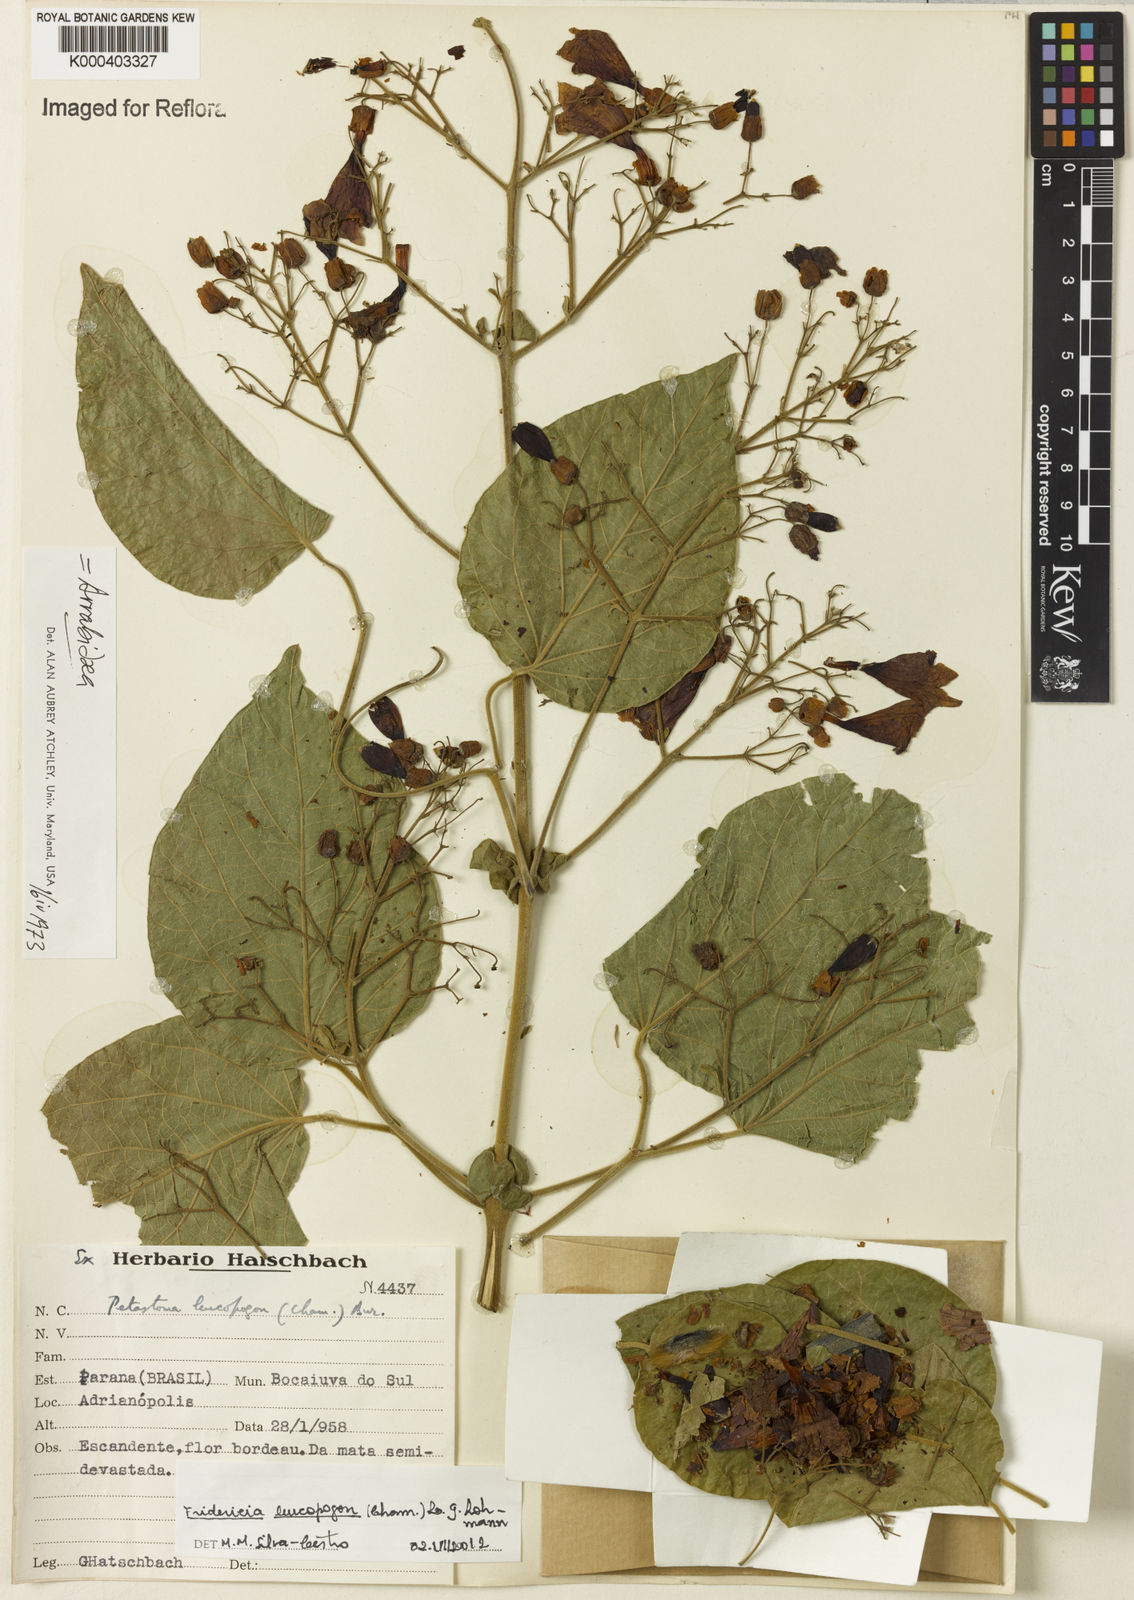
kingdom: Plantae
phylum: Tracheophyta
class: Magnoliopsida
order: Lamiales
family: Bignoniaceae
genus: Fridericia
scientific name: Fridericia leucopogon
